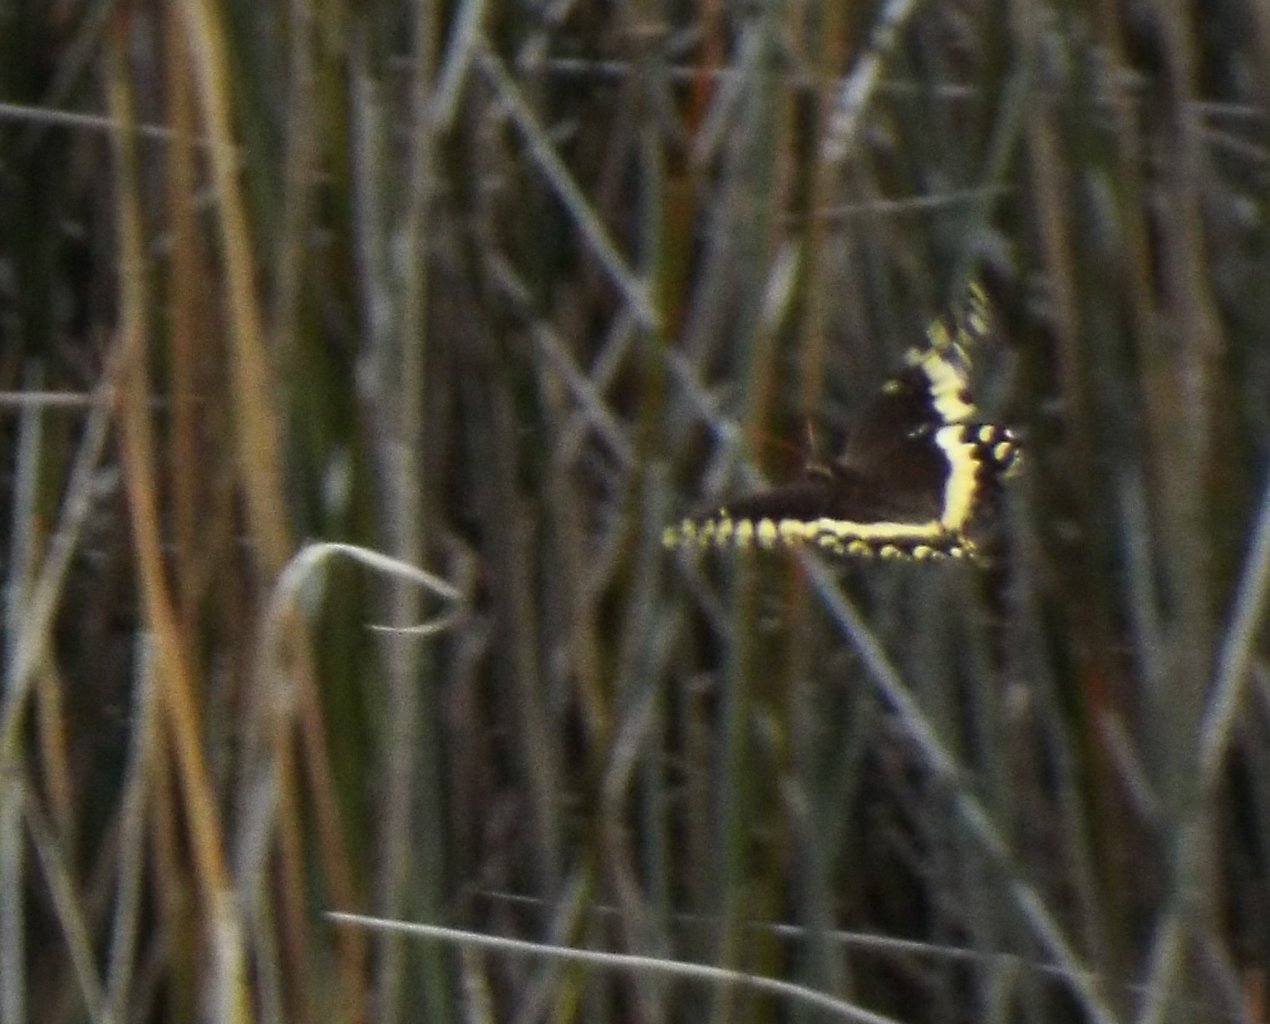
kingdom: Animalia
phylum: Arthropoda
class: Insecta
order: Lepidoptera
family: Papilionidae
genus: Pterourus
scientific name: Pterourus palamedes
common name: Palamedes Swallowtail
